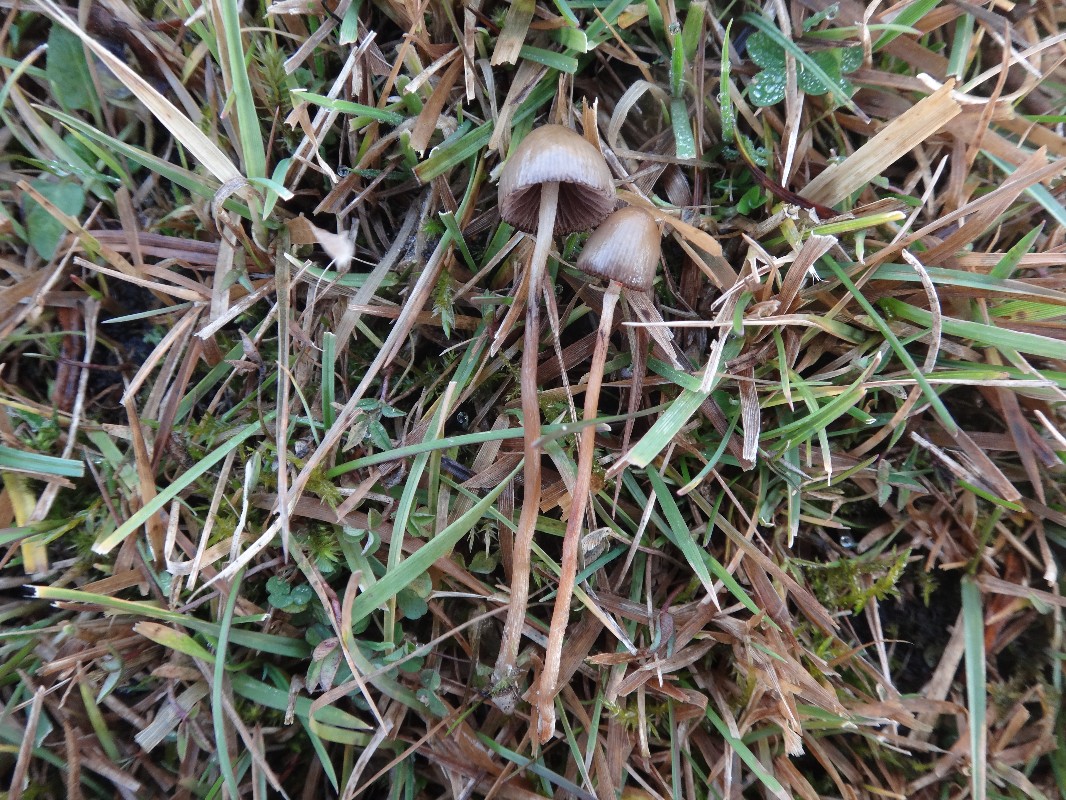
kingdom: Fungi
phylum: Basidiomycota
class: Agaricomycetes
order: Agaricales
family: Hymenogastraceae
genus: Psilocybe
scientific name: Psilocybe semilanceata
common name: spids nøgenhat
